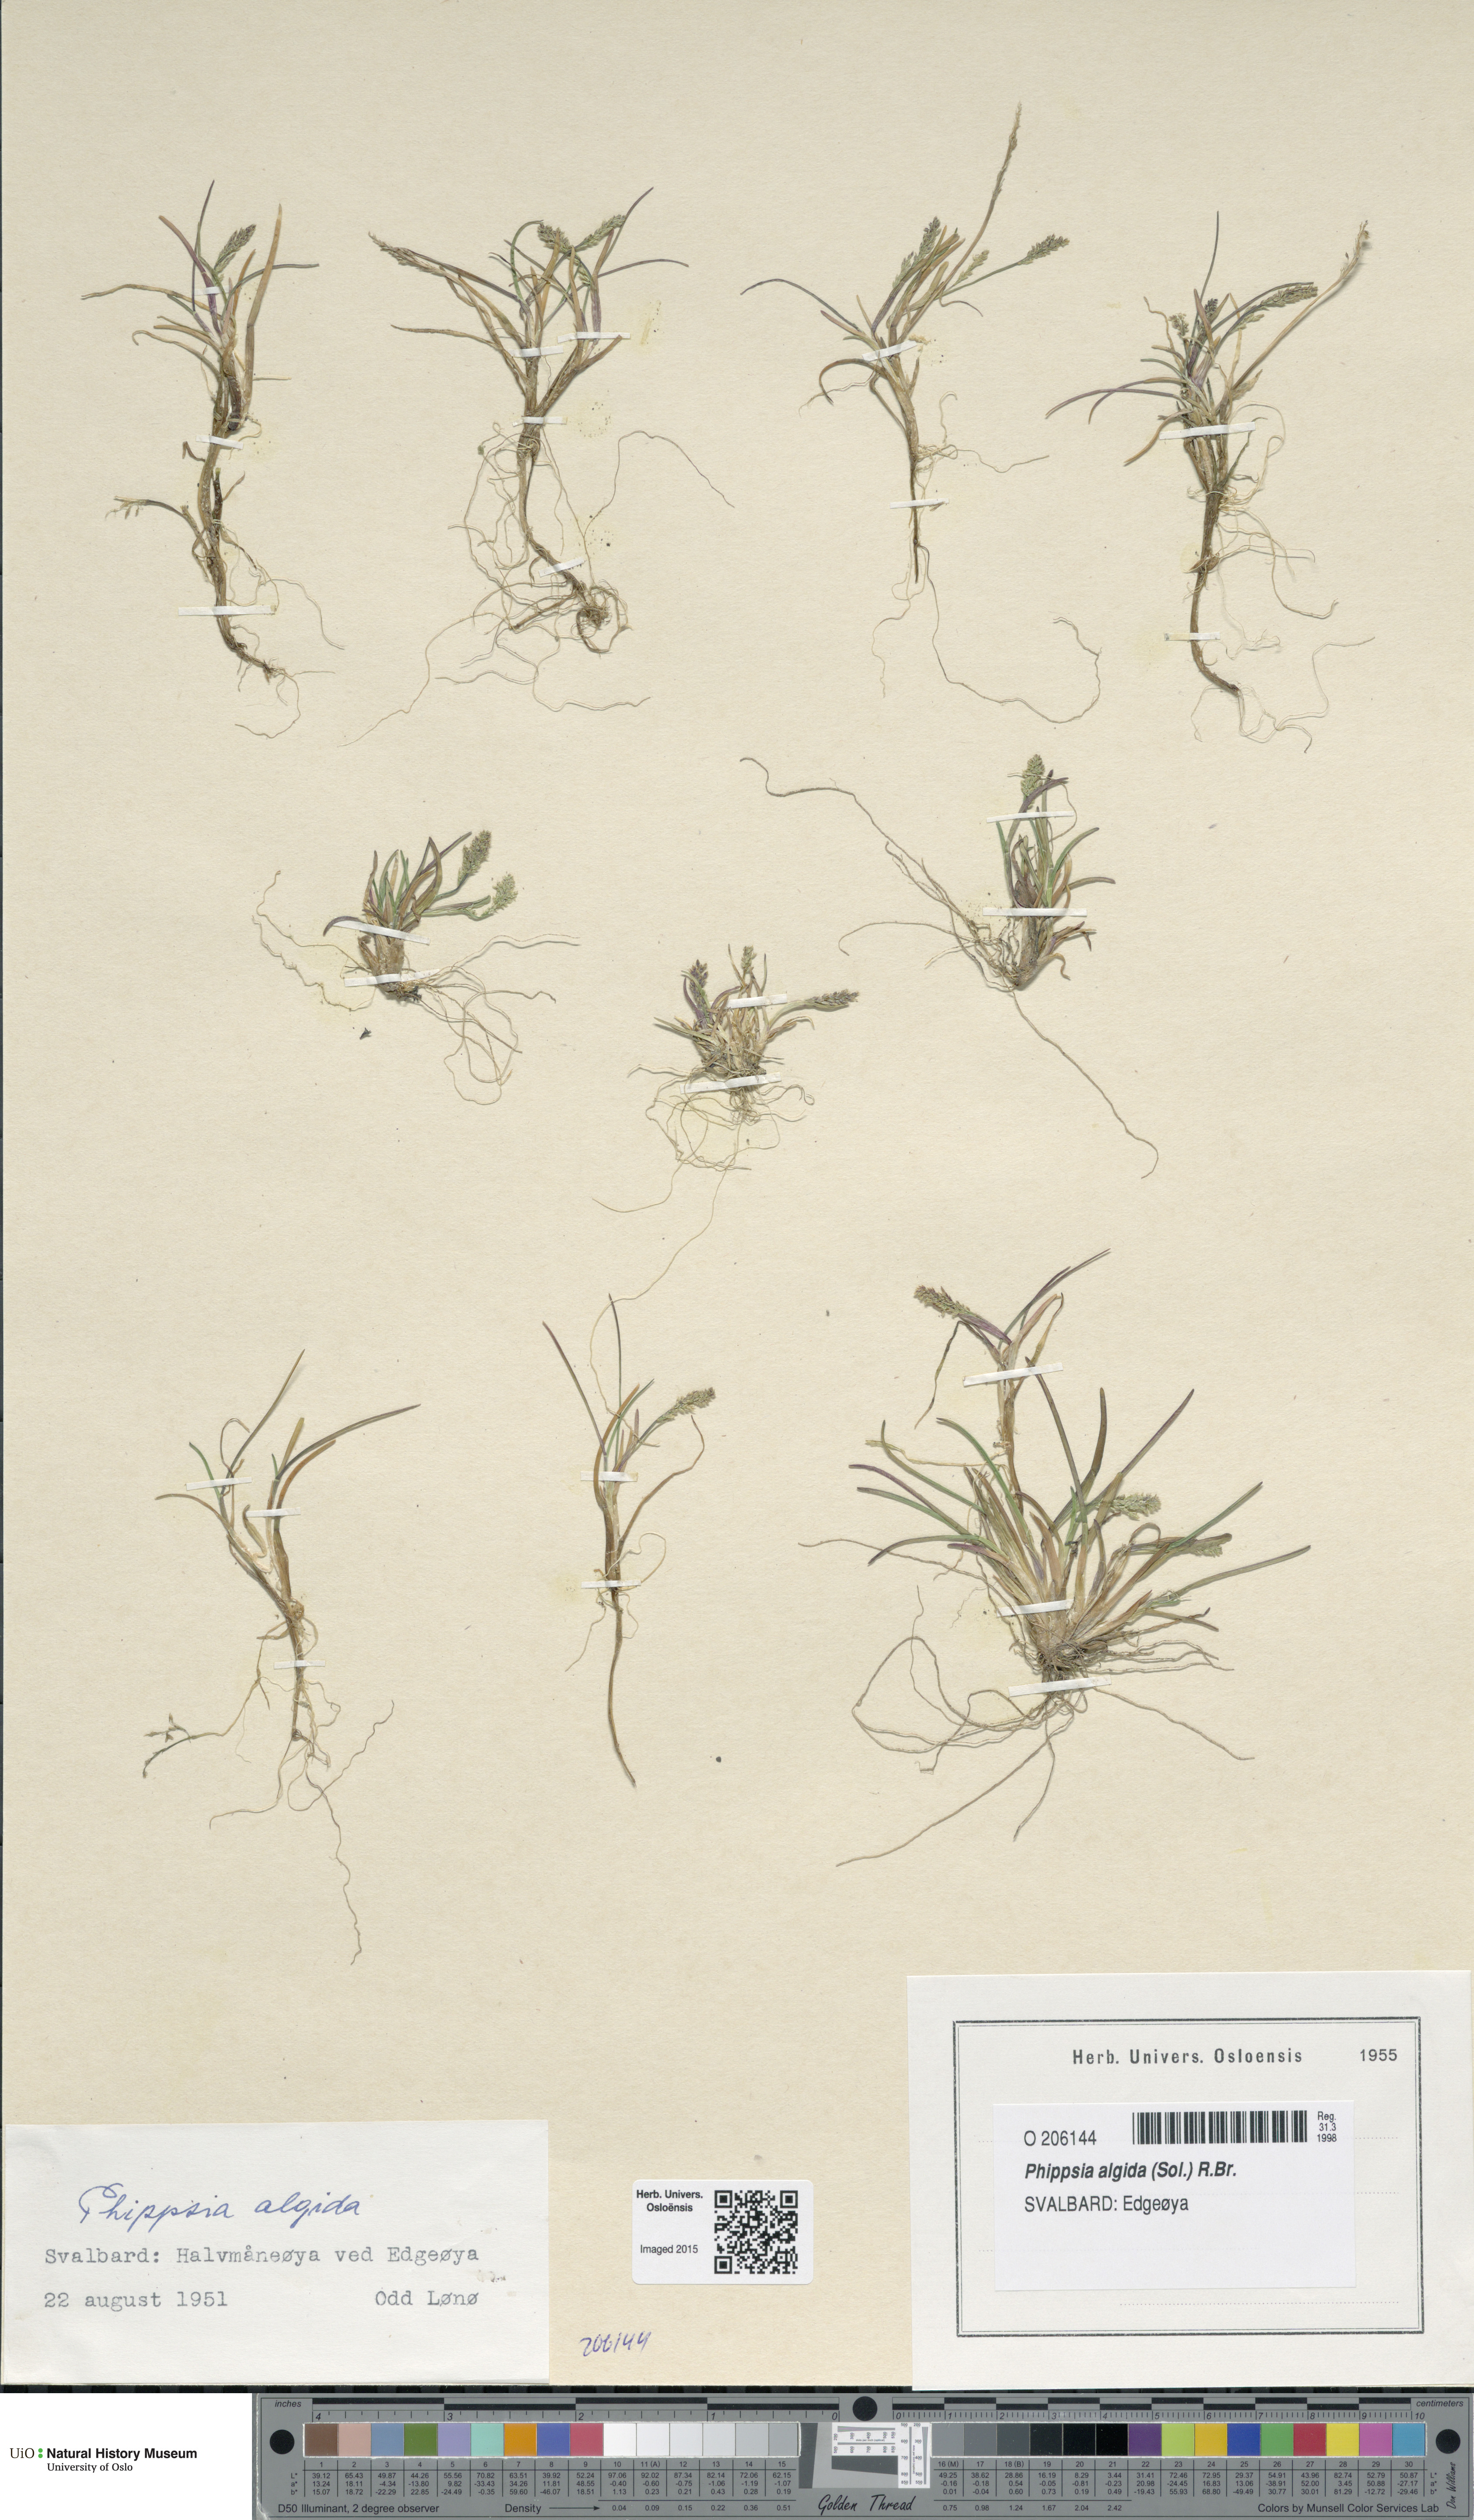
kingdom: Plantae
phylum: Tracheophyta
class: Liliopsida
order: Poales
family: Poaceae
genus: Phippsia
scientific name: Phippsia algida
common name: Ice grass
